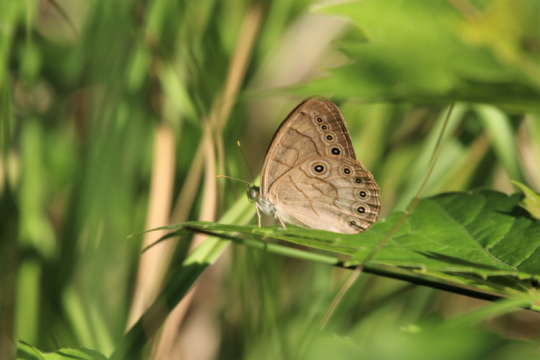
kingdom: Animalia
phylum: Arthropoda
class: Insecta
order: Lepidoptera
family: Nymphalidae
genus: Lethe
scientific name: Lethe eurydice
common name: Appalachian Eyed Brown
